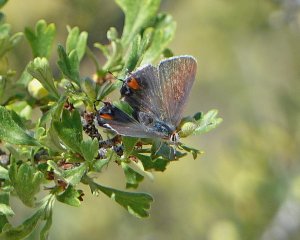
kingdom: Animalia
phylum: Arthropoda
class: Insecta
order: Lepidoptera
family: Lycaenidae
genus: Strymon
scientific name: Strymon melinus
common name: Gray Hairstreak
